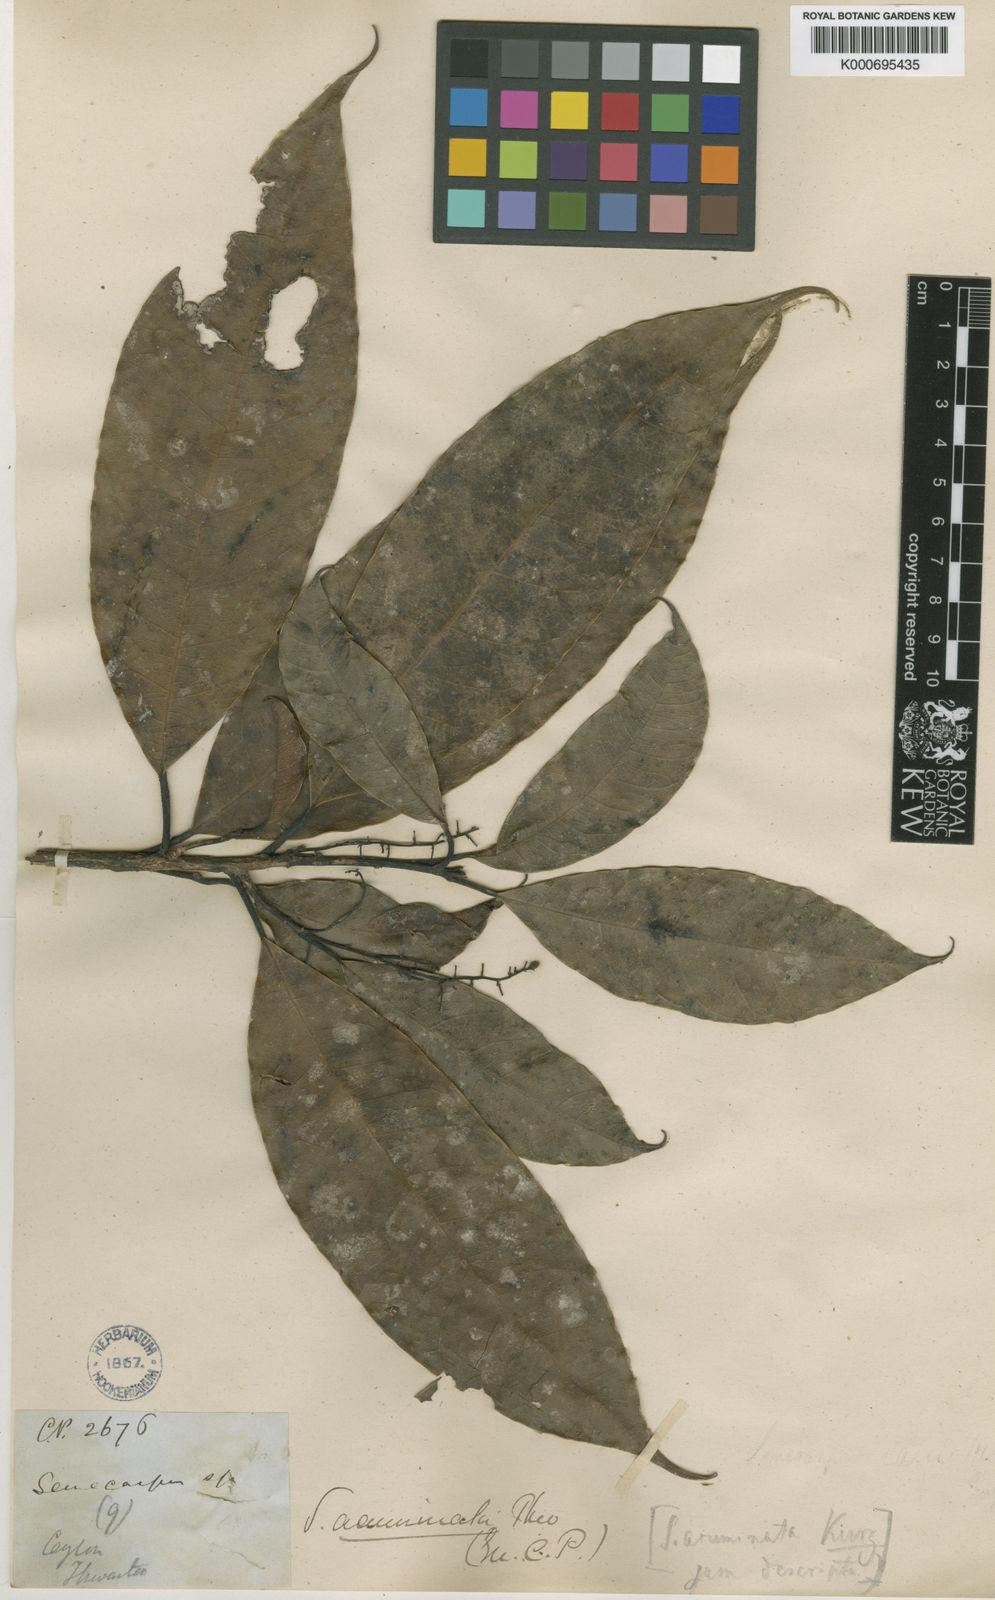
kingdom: Plantae
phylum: Tracheophyta
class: Magnoliopsida
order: Sapindales
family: Anacardiaceae
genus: Semecarpus
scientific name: Semecarpus acuminatus
